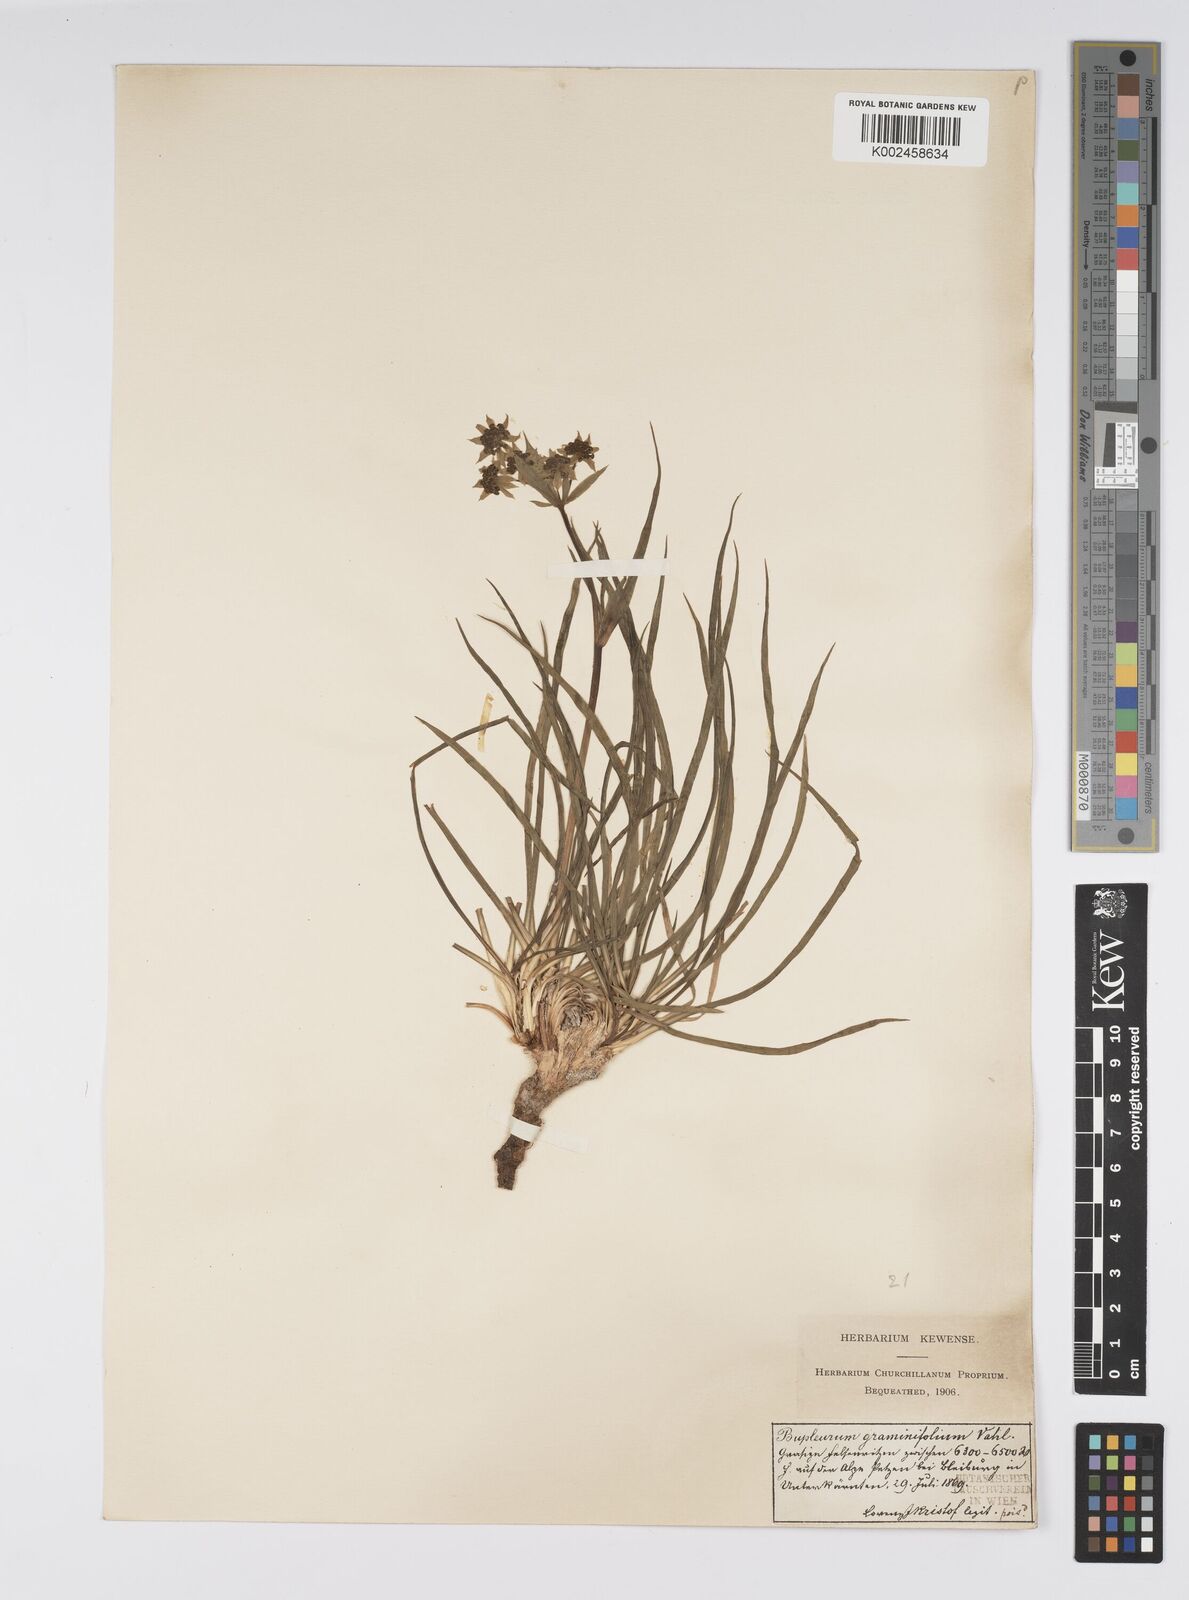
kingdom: Plantae
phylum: Tracheophyta
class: Magnoliopsida
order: Apiales
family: Apiaceae
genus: Bupleurum
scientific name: Bupleurum petraeum
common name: Rock hare's-ear
